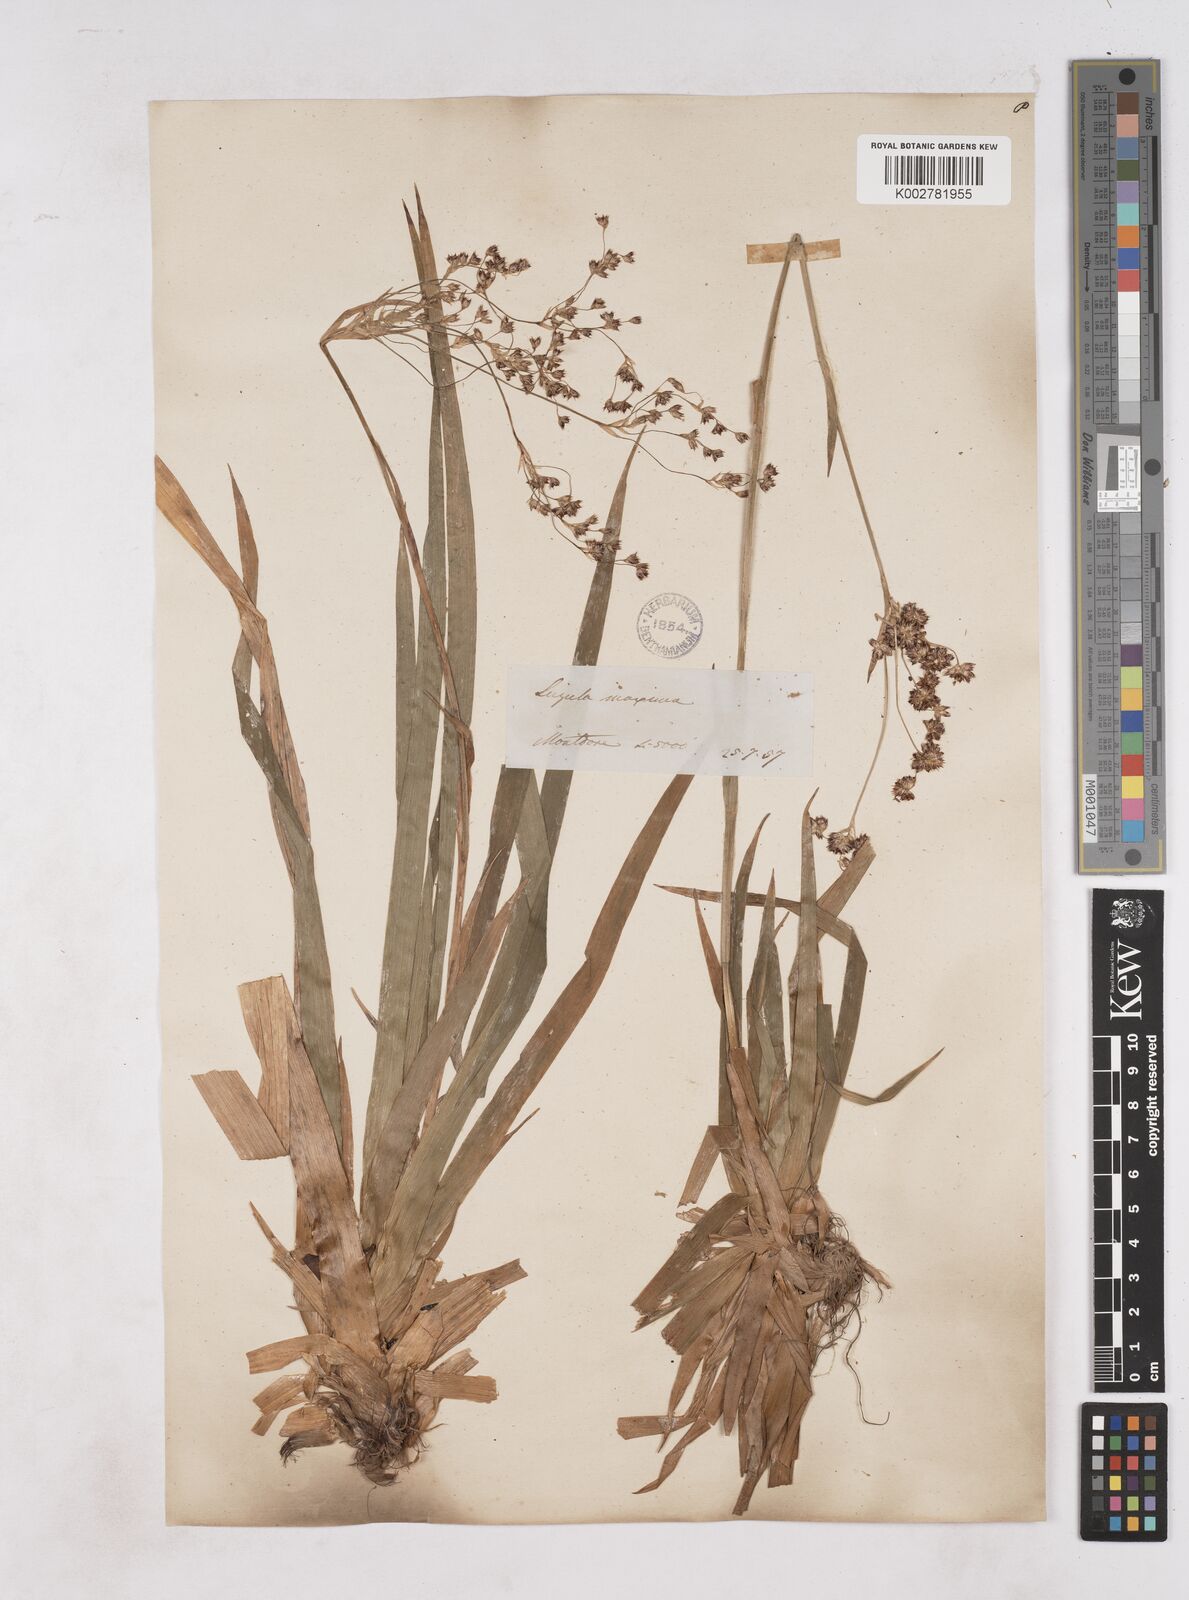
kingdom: Plantae
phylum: Tracheophyta
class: Liliopsida
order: Poales
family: Juncaceae
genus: Luzula
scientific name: Luzula sylvatica
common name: Great wood-rush
